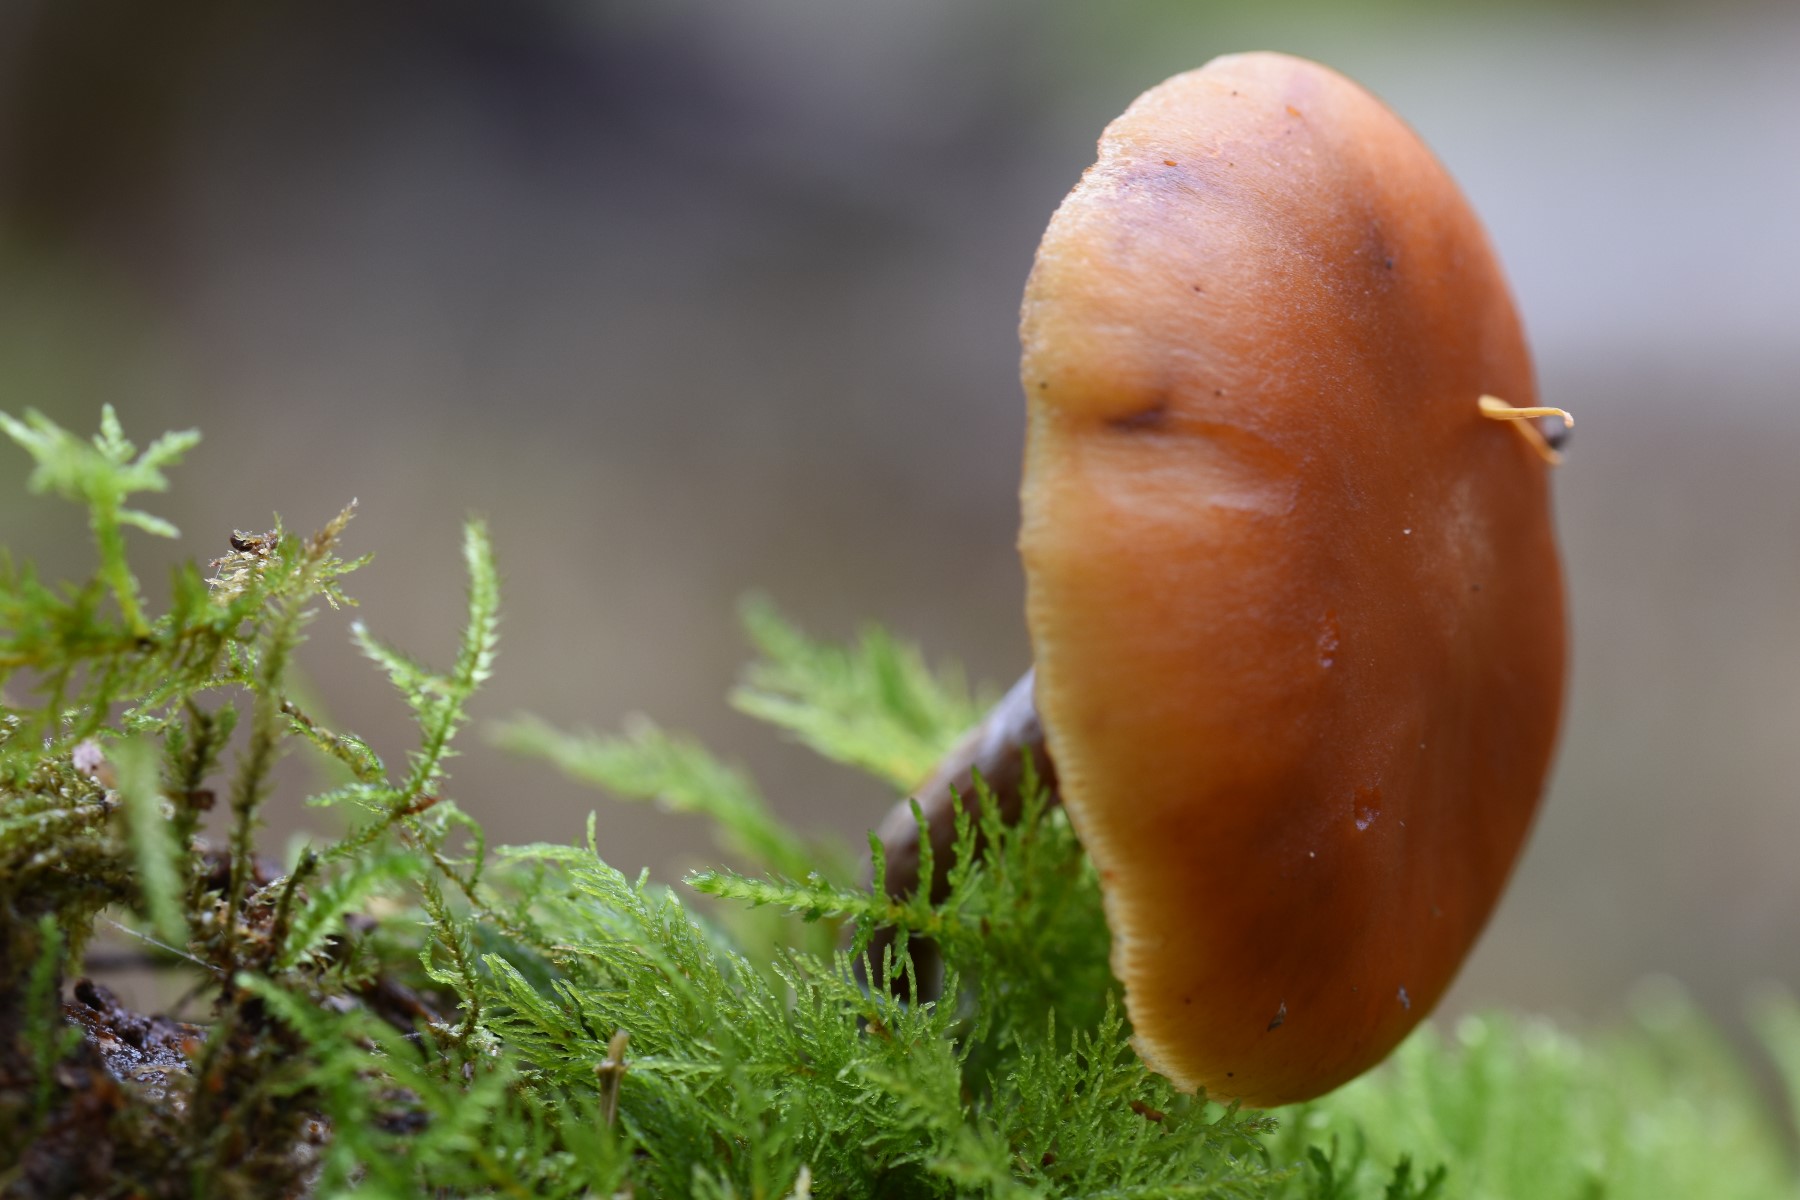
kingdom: Fungi
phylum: Basidiomycota
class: Agaricomycetes
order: Agaricales
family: Hymenogastraceae
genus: Gymnopilus
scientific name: Gymnopilus penetrans
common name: plettet flammehat
